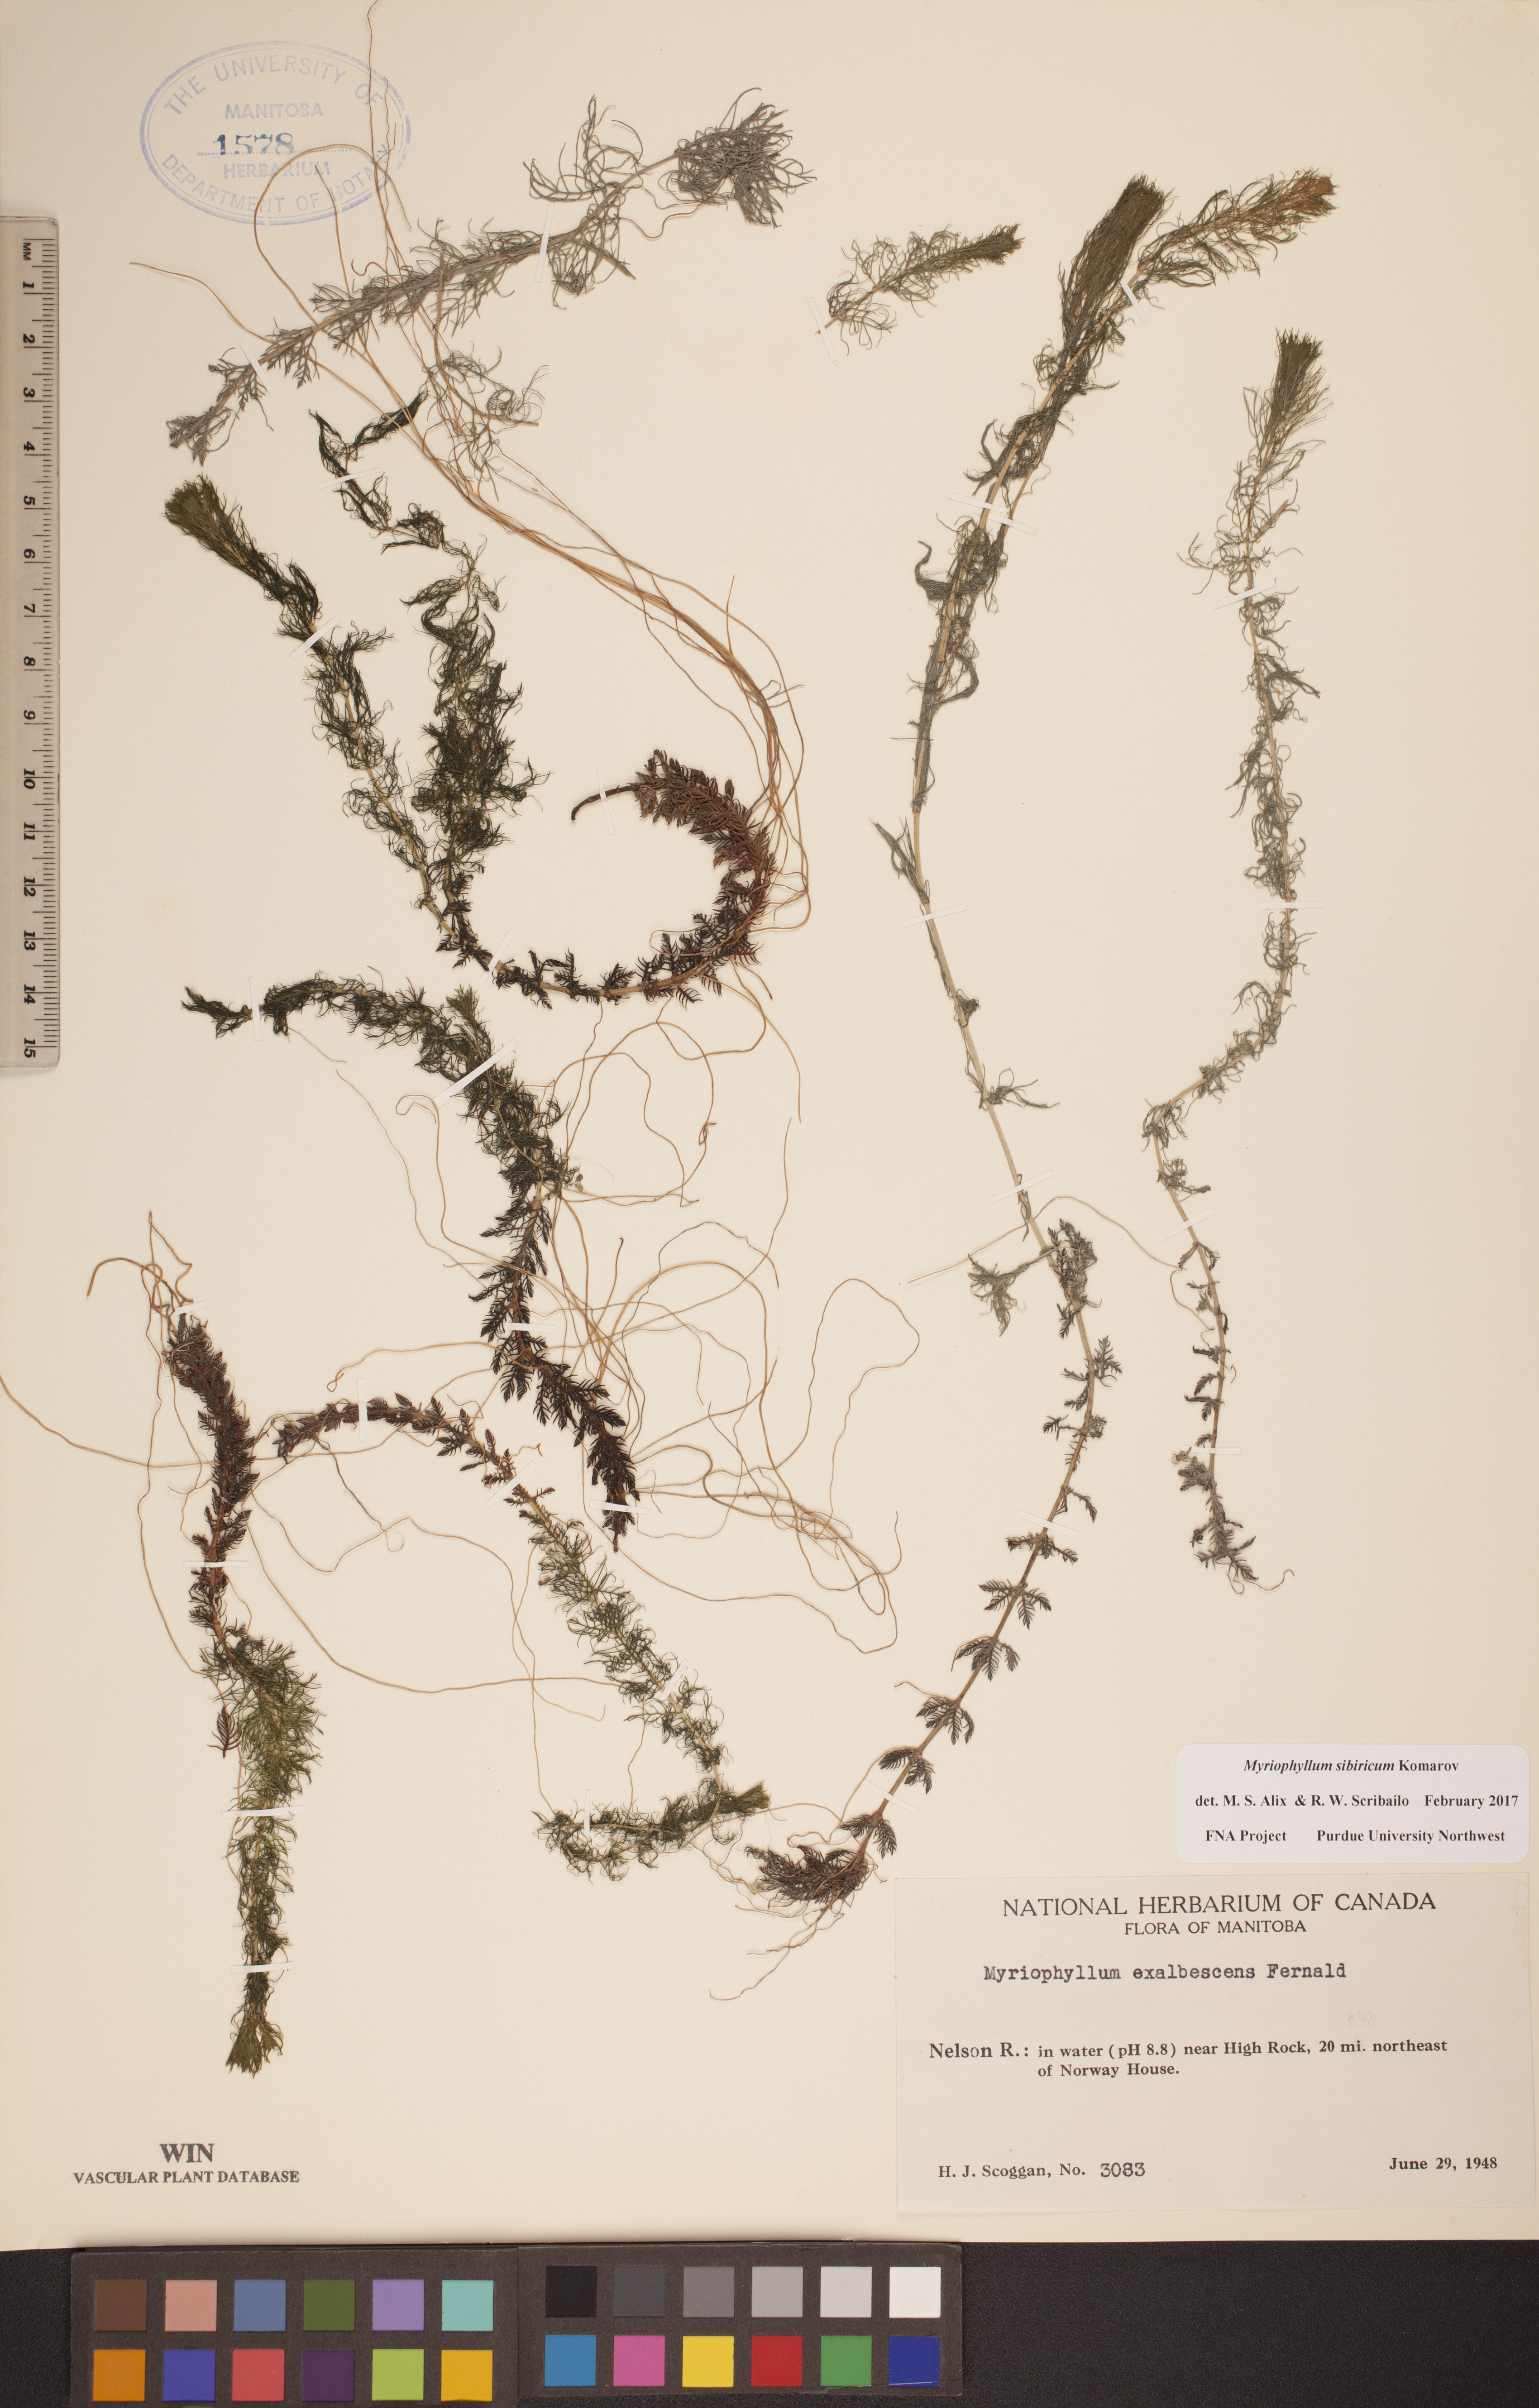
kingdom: Plantae
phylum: Tracheophyta
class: Magnoliopsida
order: Saxifragales
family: Haloragaceae
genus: Myriophyllum
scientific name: Myriophyllum sibiricum
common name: Siberian water-milfoil
